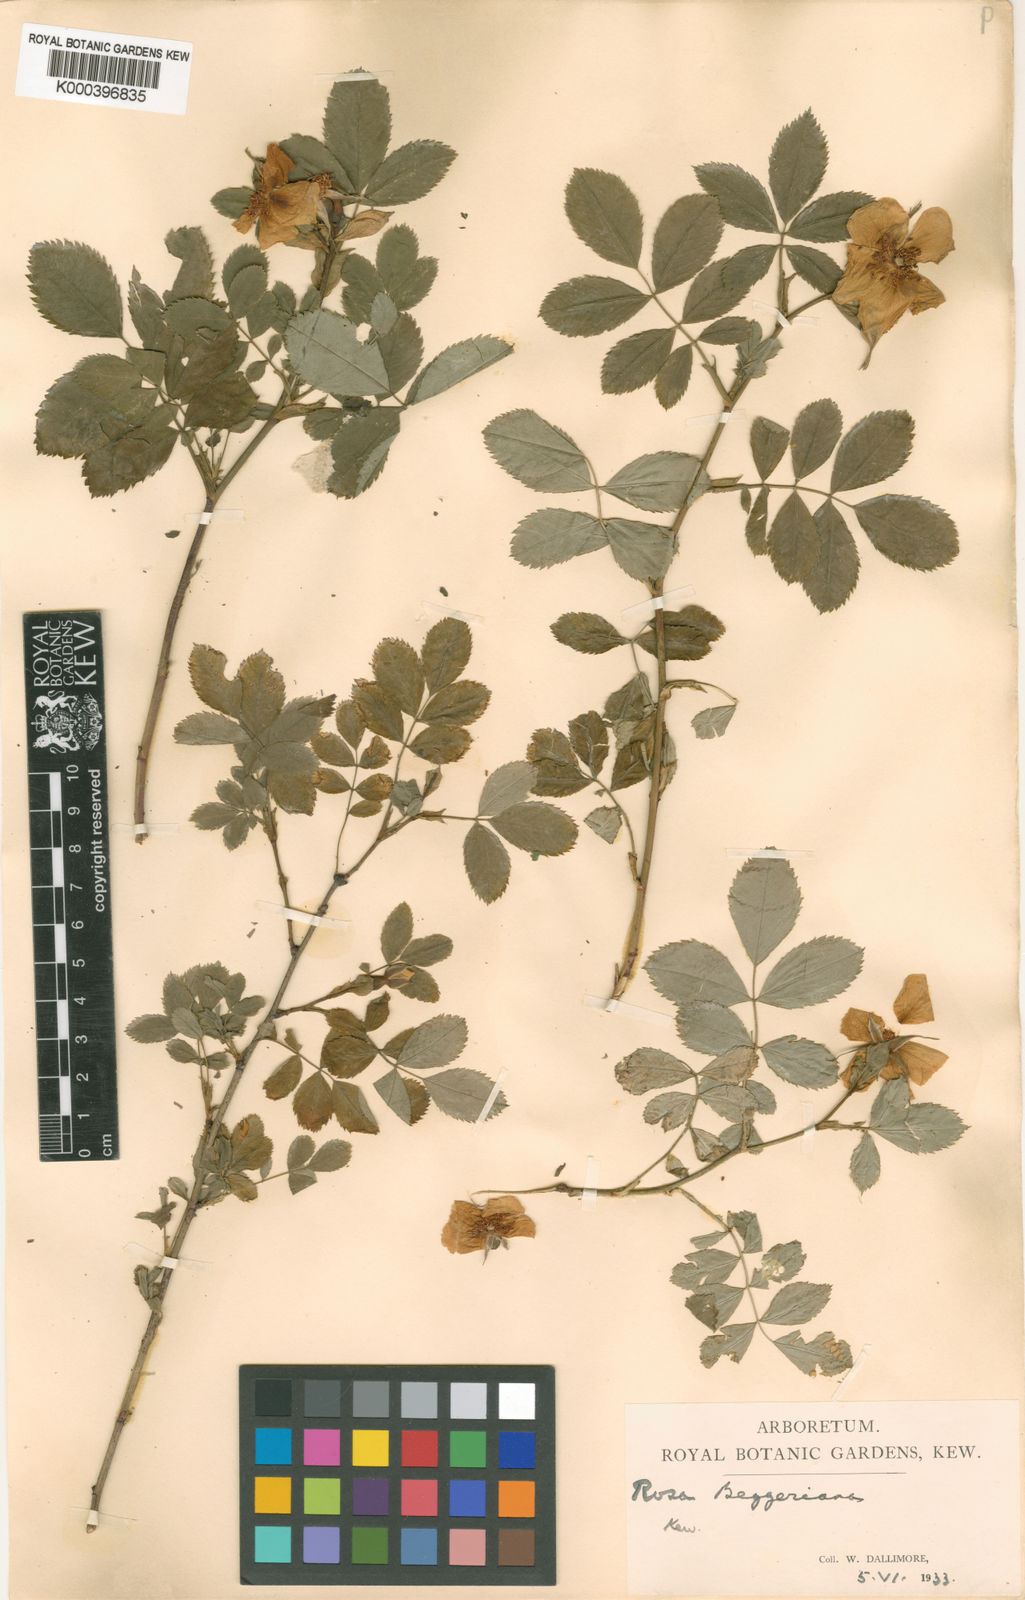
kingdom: Plantae
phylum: Tracheophyta
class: Magnoliopsida
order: Rosales
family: Rosaceae
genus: Rosa
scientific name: Rosa beggeriana
